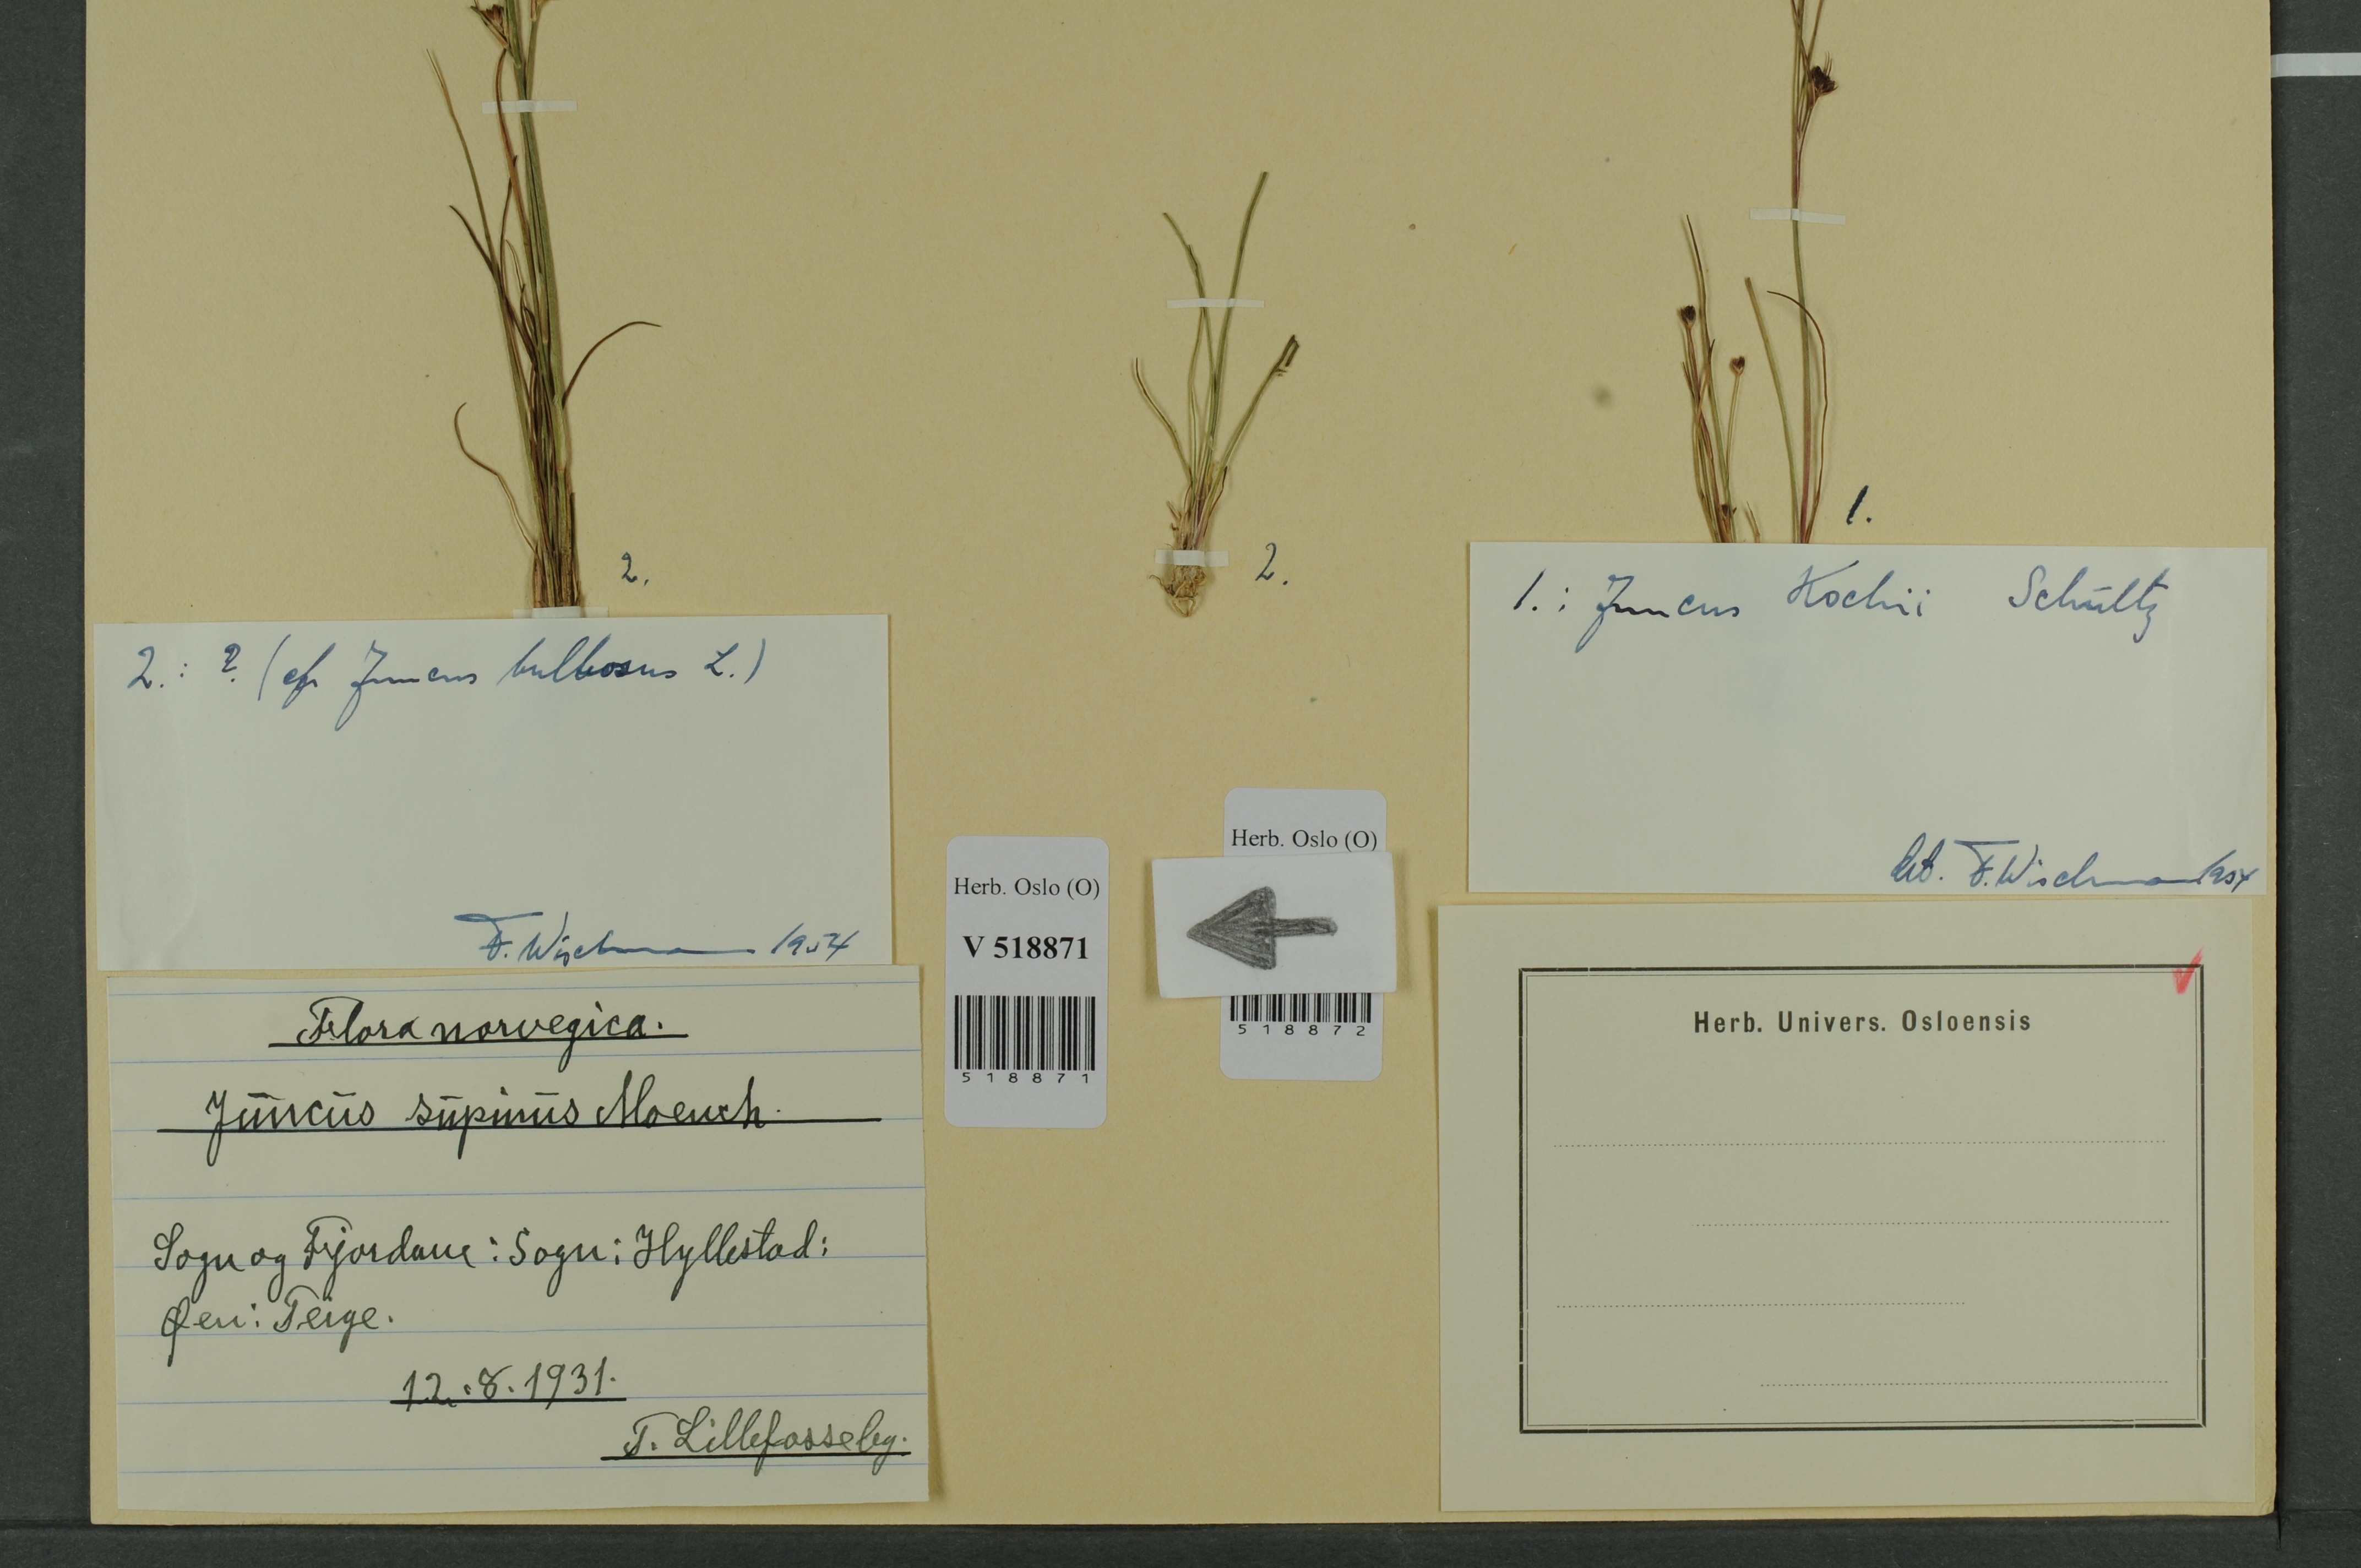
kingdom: Plantae
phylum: Tracheophyta
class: Liliopsida
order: Poales
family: Juncaceae
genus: Juncus
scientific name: Juncus compressus
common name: Round-fruited rush
